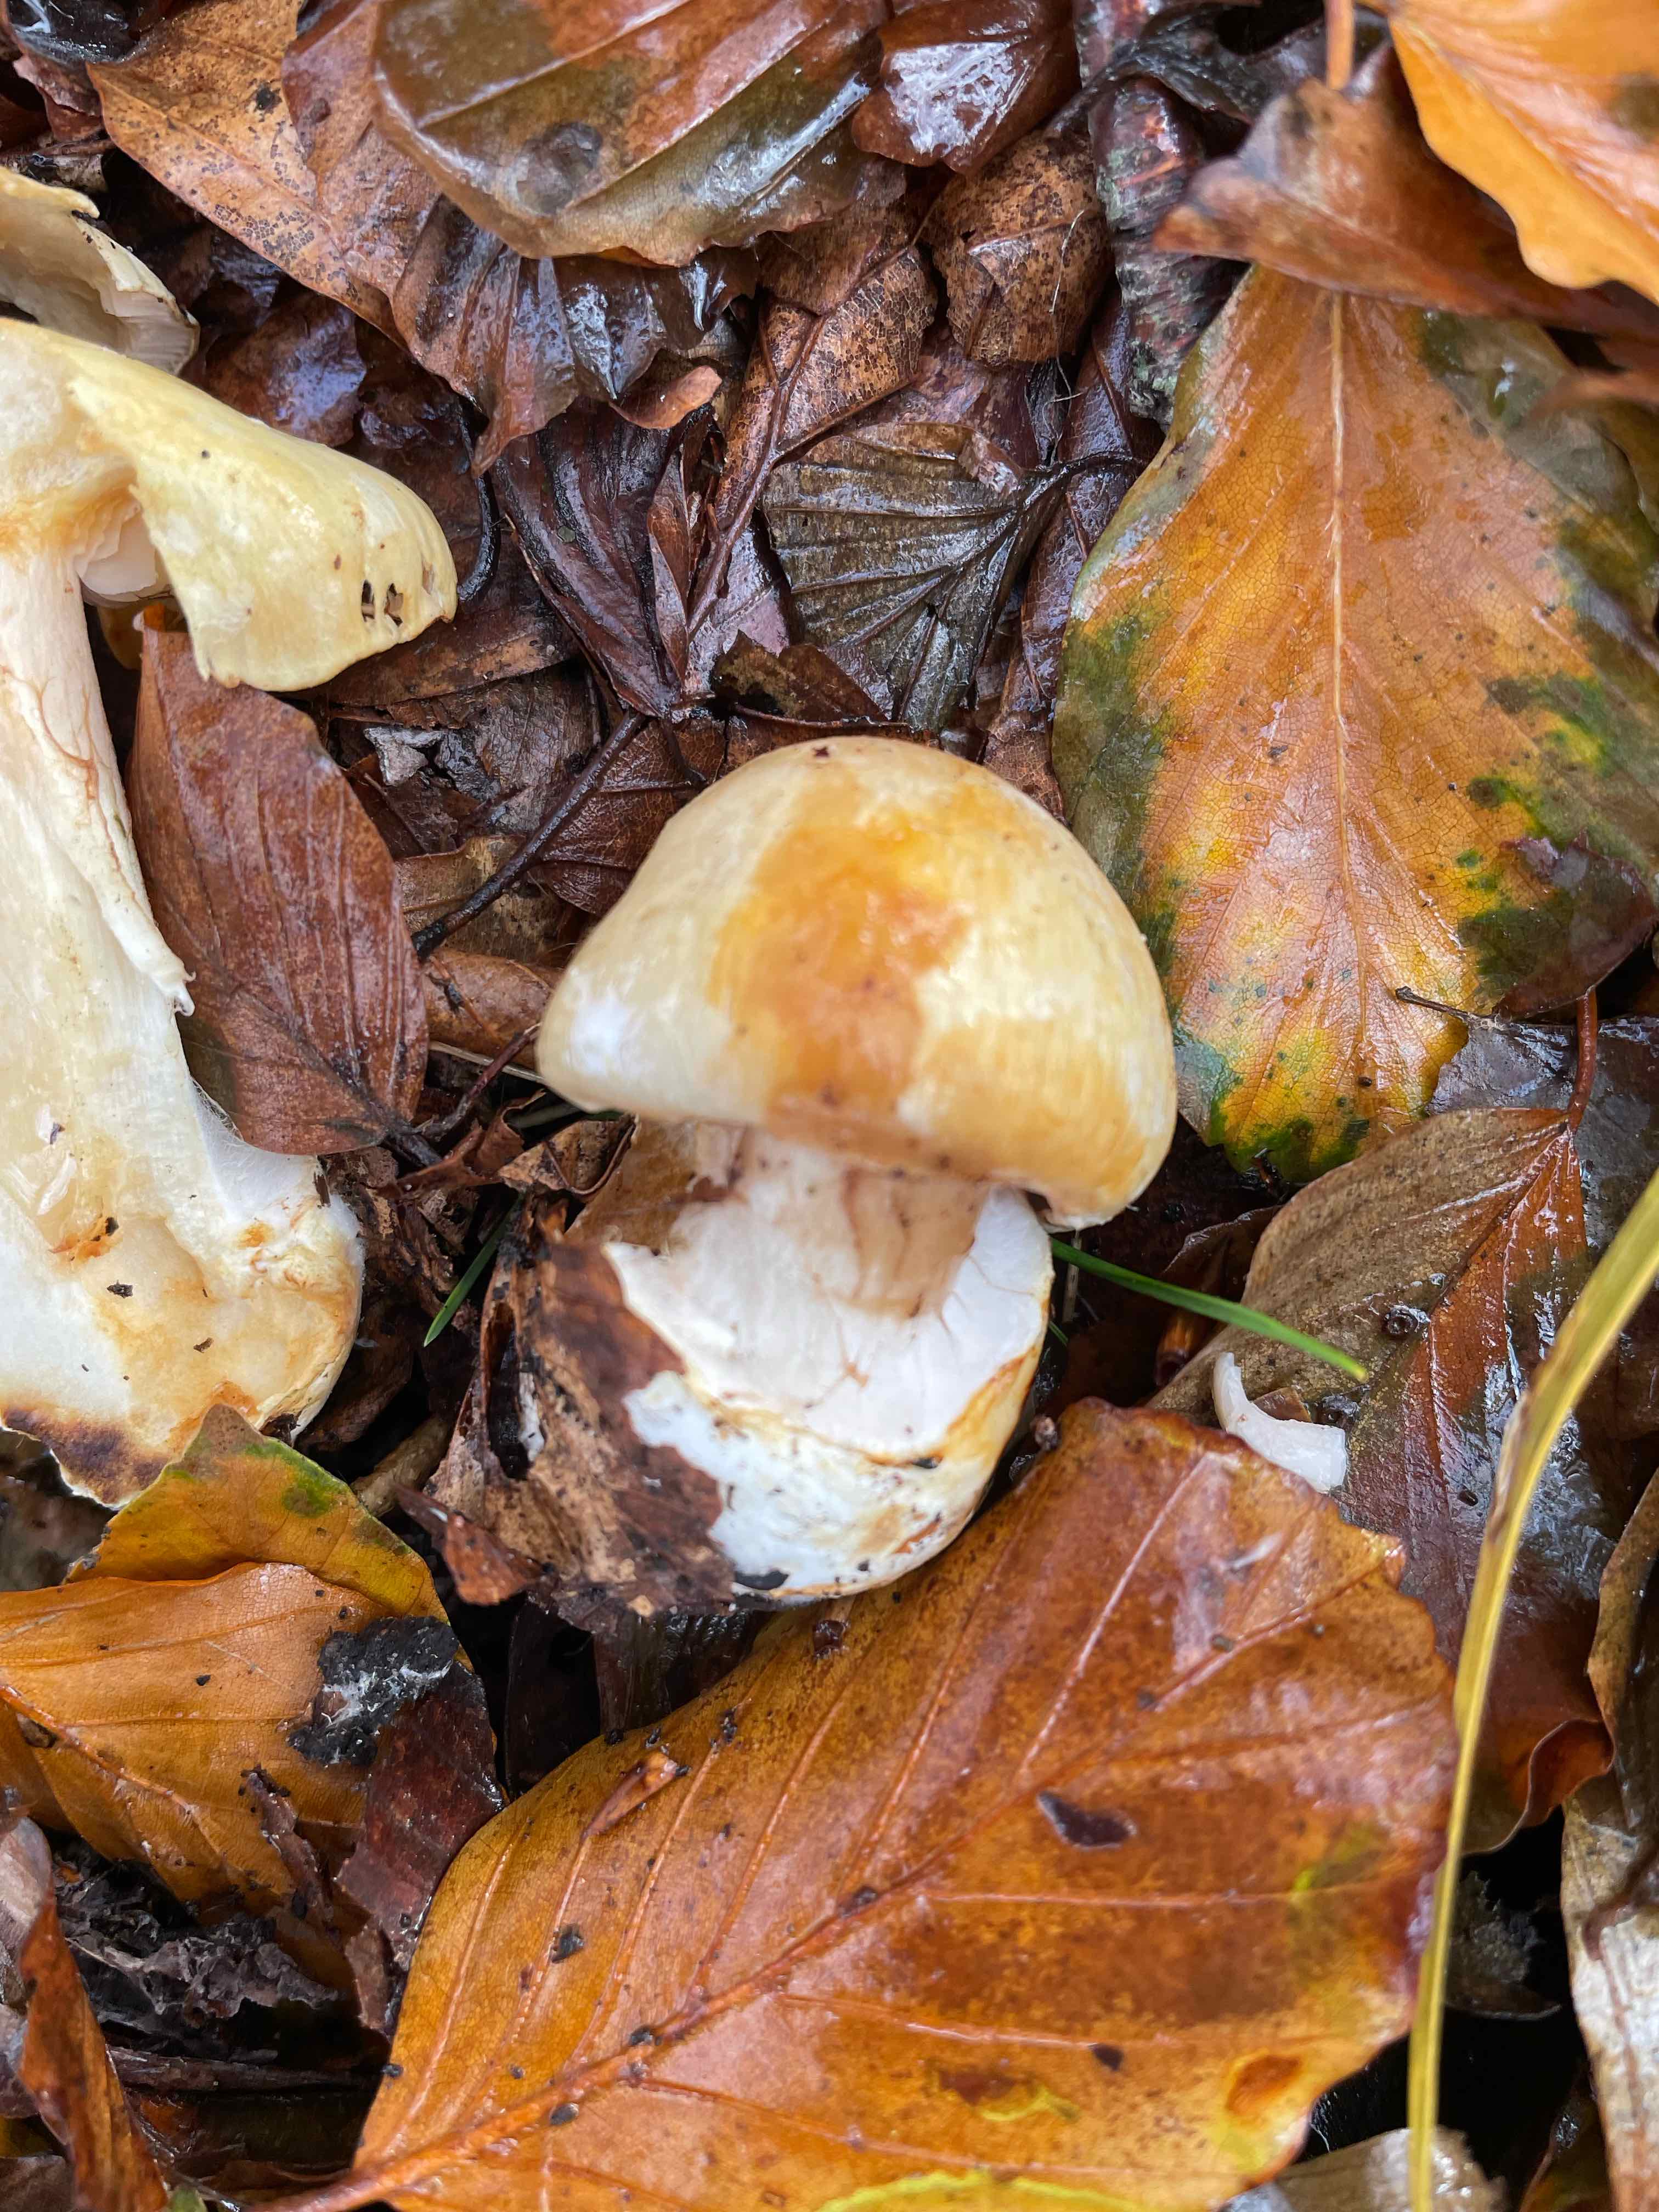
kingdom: Fungi
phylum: Basidiomycota
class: Agaricomycetes
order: Agaricales
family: Cortinariaceae
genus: Thaxterogaster
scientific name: Thaxterogaster talus
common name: knogle-slørhat
